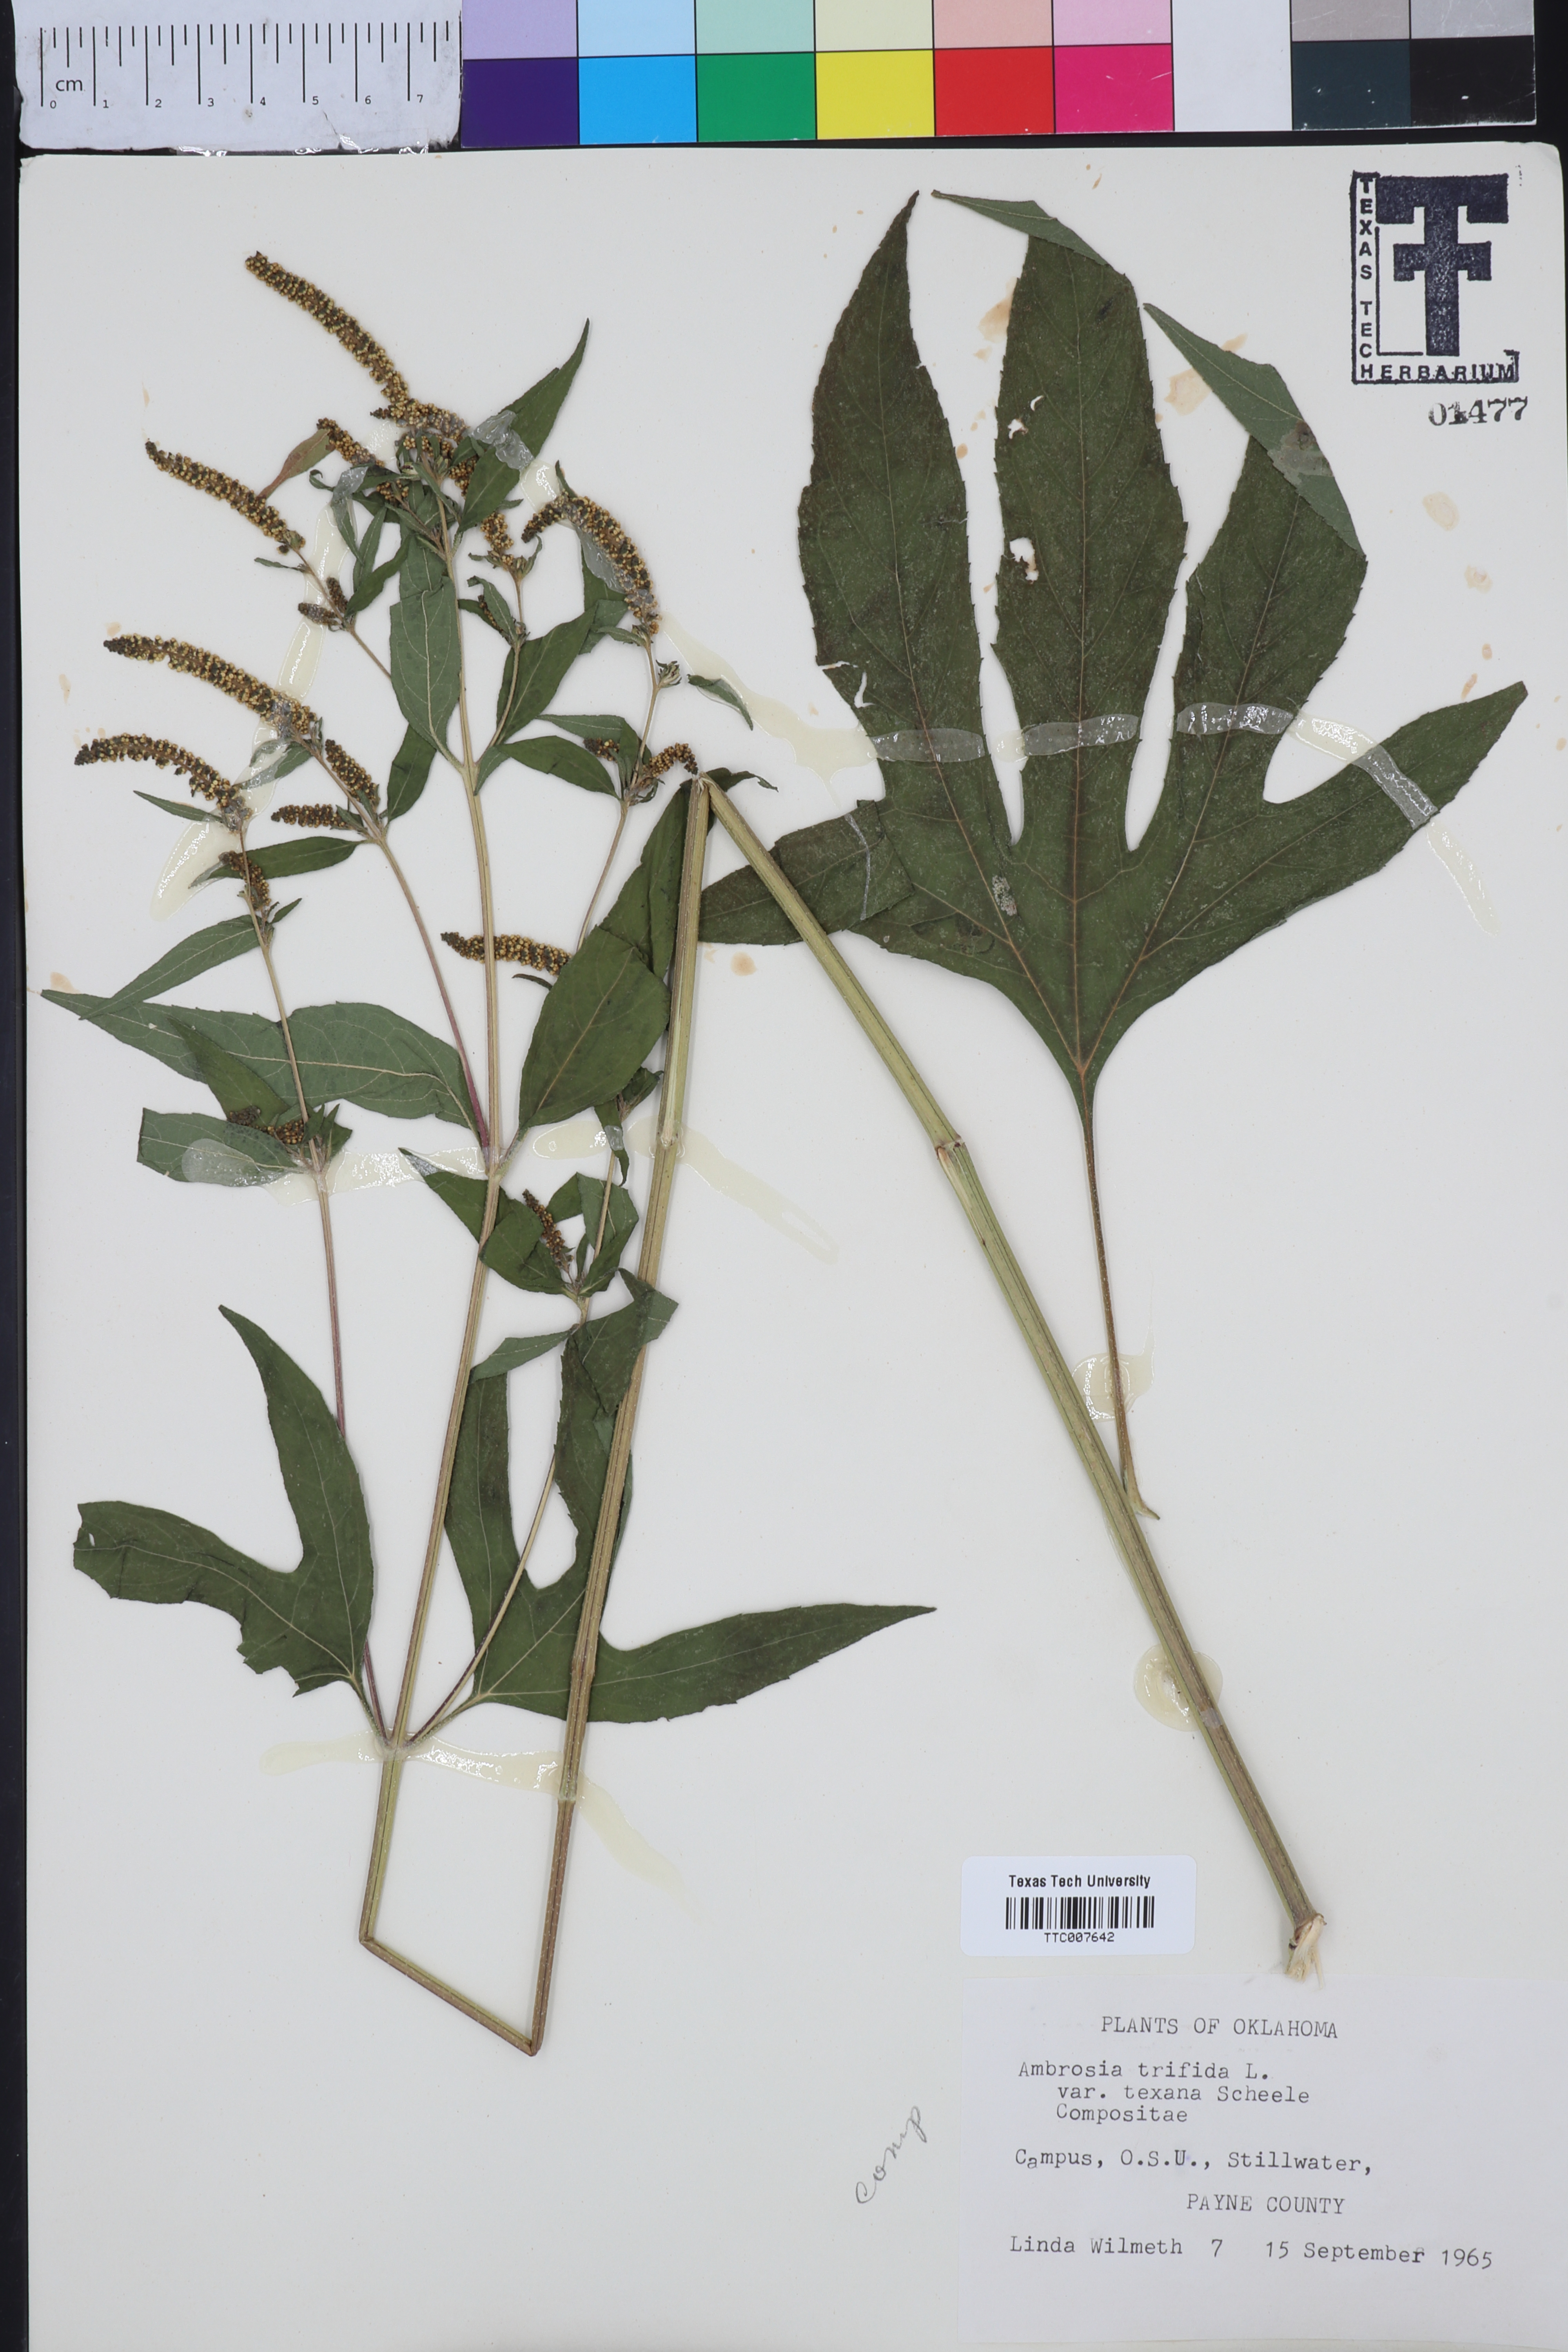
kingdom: Plantae
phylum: Tracheophyta
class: Magnoliopsida
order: Asterales
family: Asteraceae
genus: Ambrosia
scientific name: Ambrosia trifida
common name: Giant ragweed
